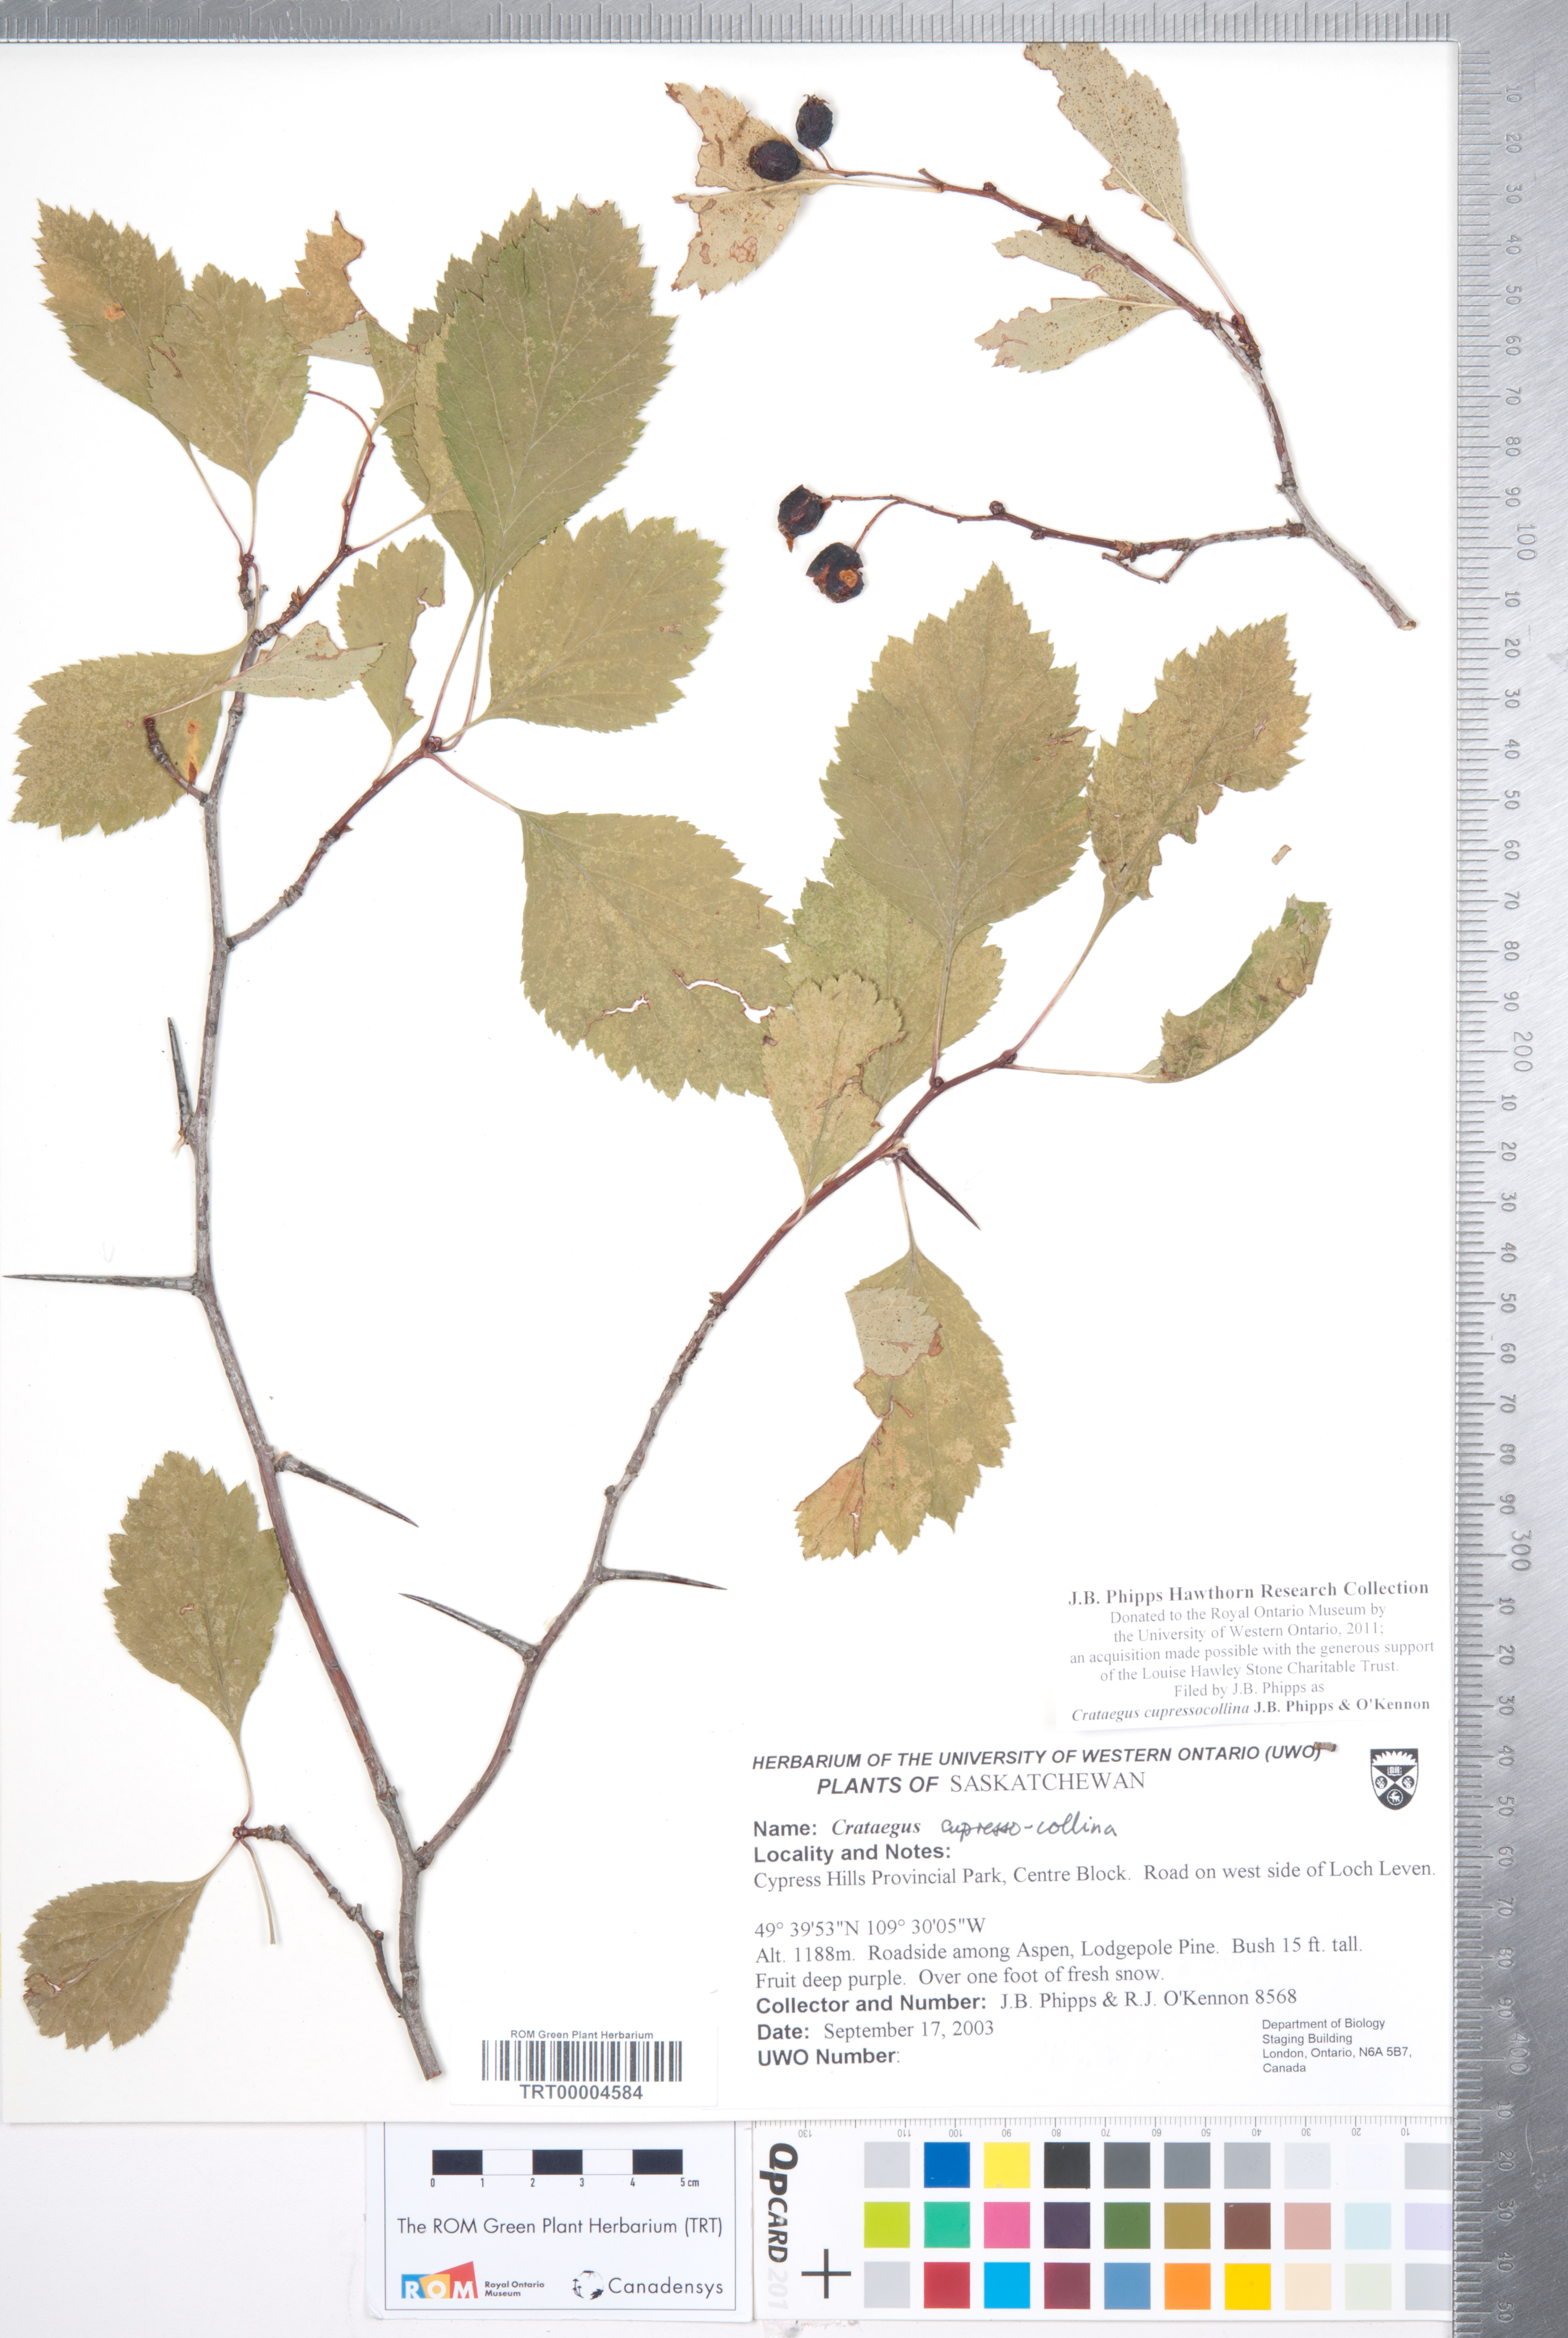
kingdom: Plantae
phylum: Tracheophyta
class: Magnoliopsida
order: Rosales
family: Rosaceae
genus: Crataegus
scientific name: Crataegus cupressocollina
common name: Cypress hills hawthorn
